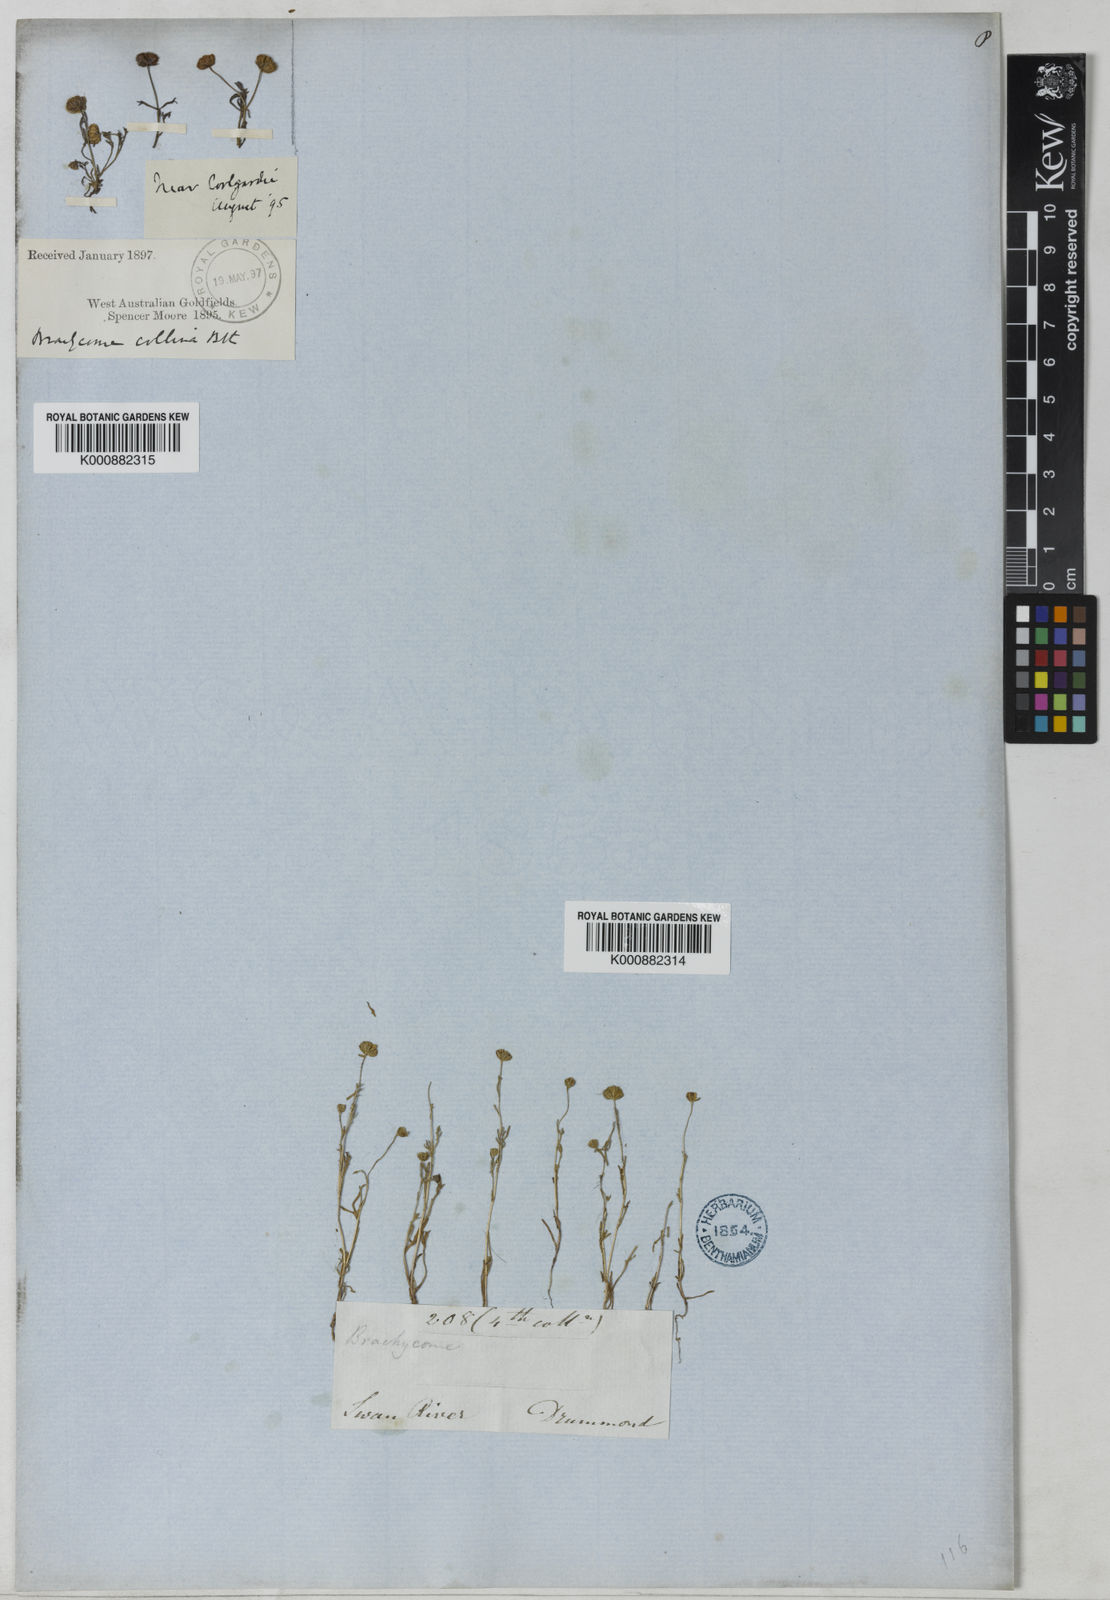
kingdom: Plantae
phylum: Tracheophyta
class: Magnoliopsida
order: Asterales
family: Asteraceae
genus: Brachyscome
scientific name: Brachyscome perpusilla
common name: Tiny daisy
